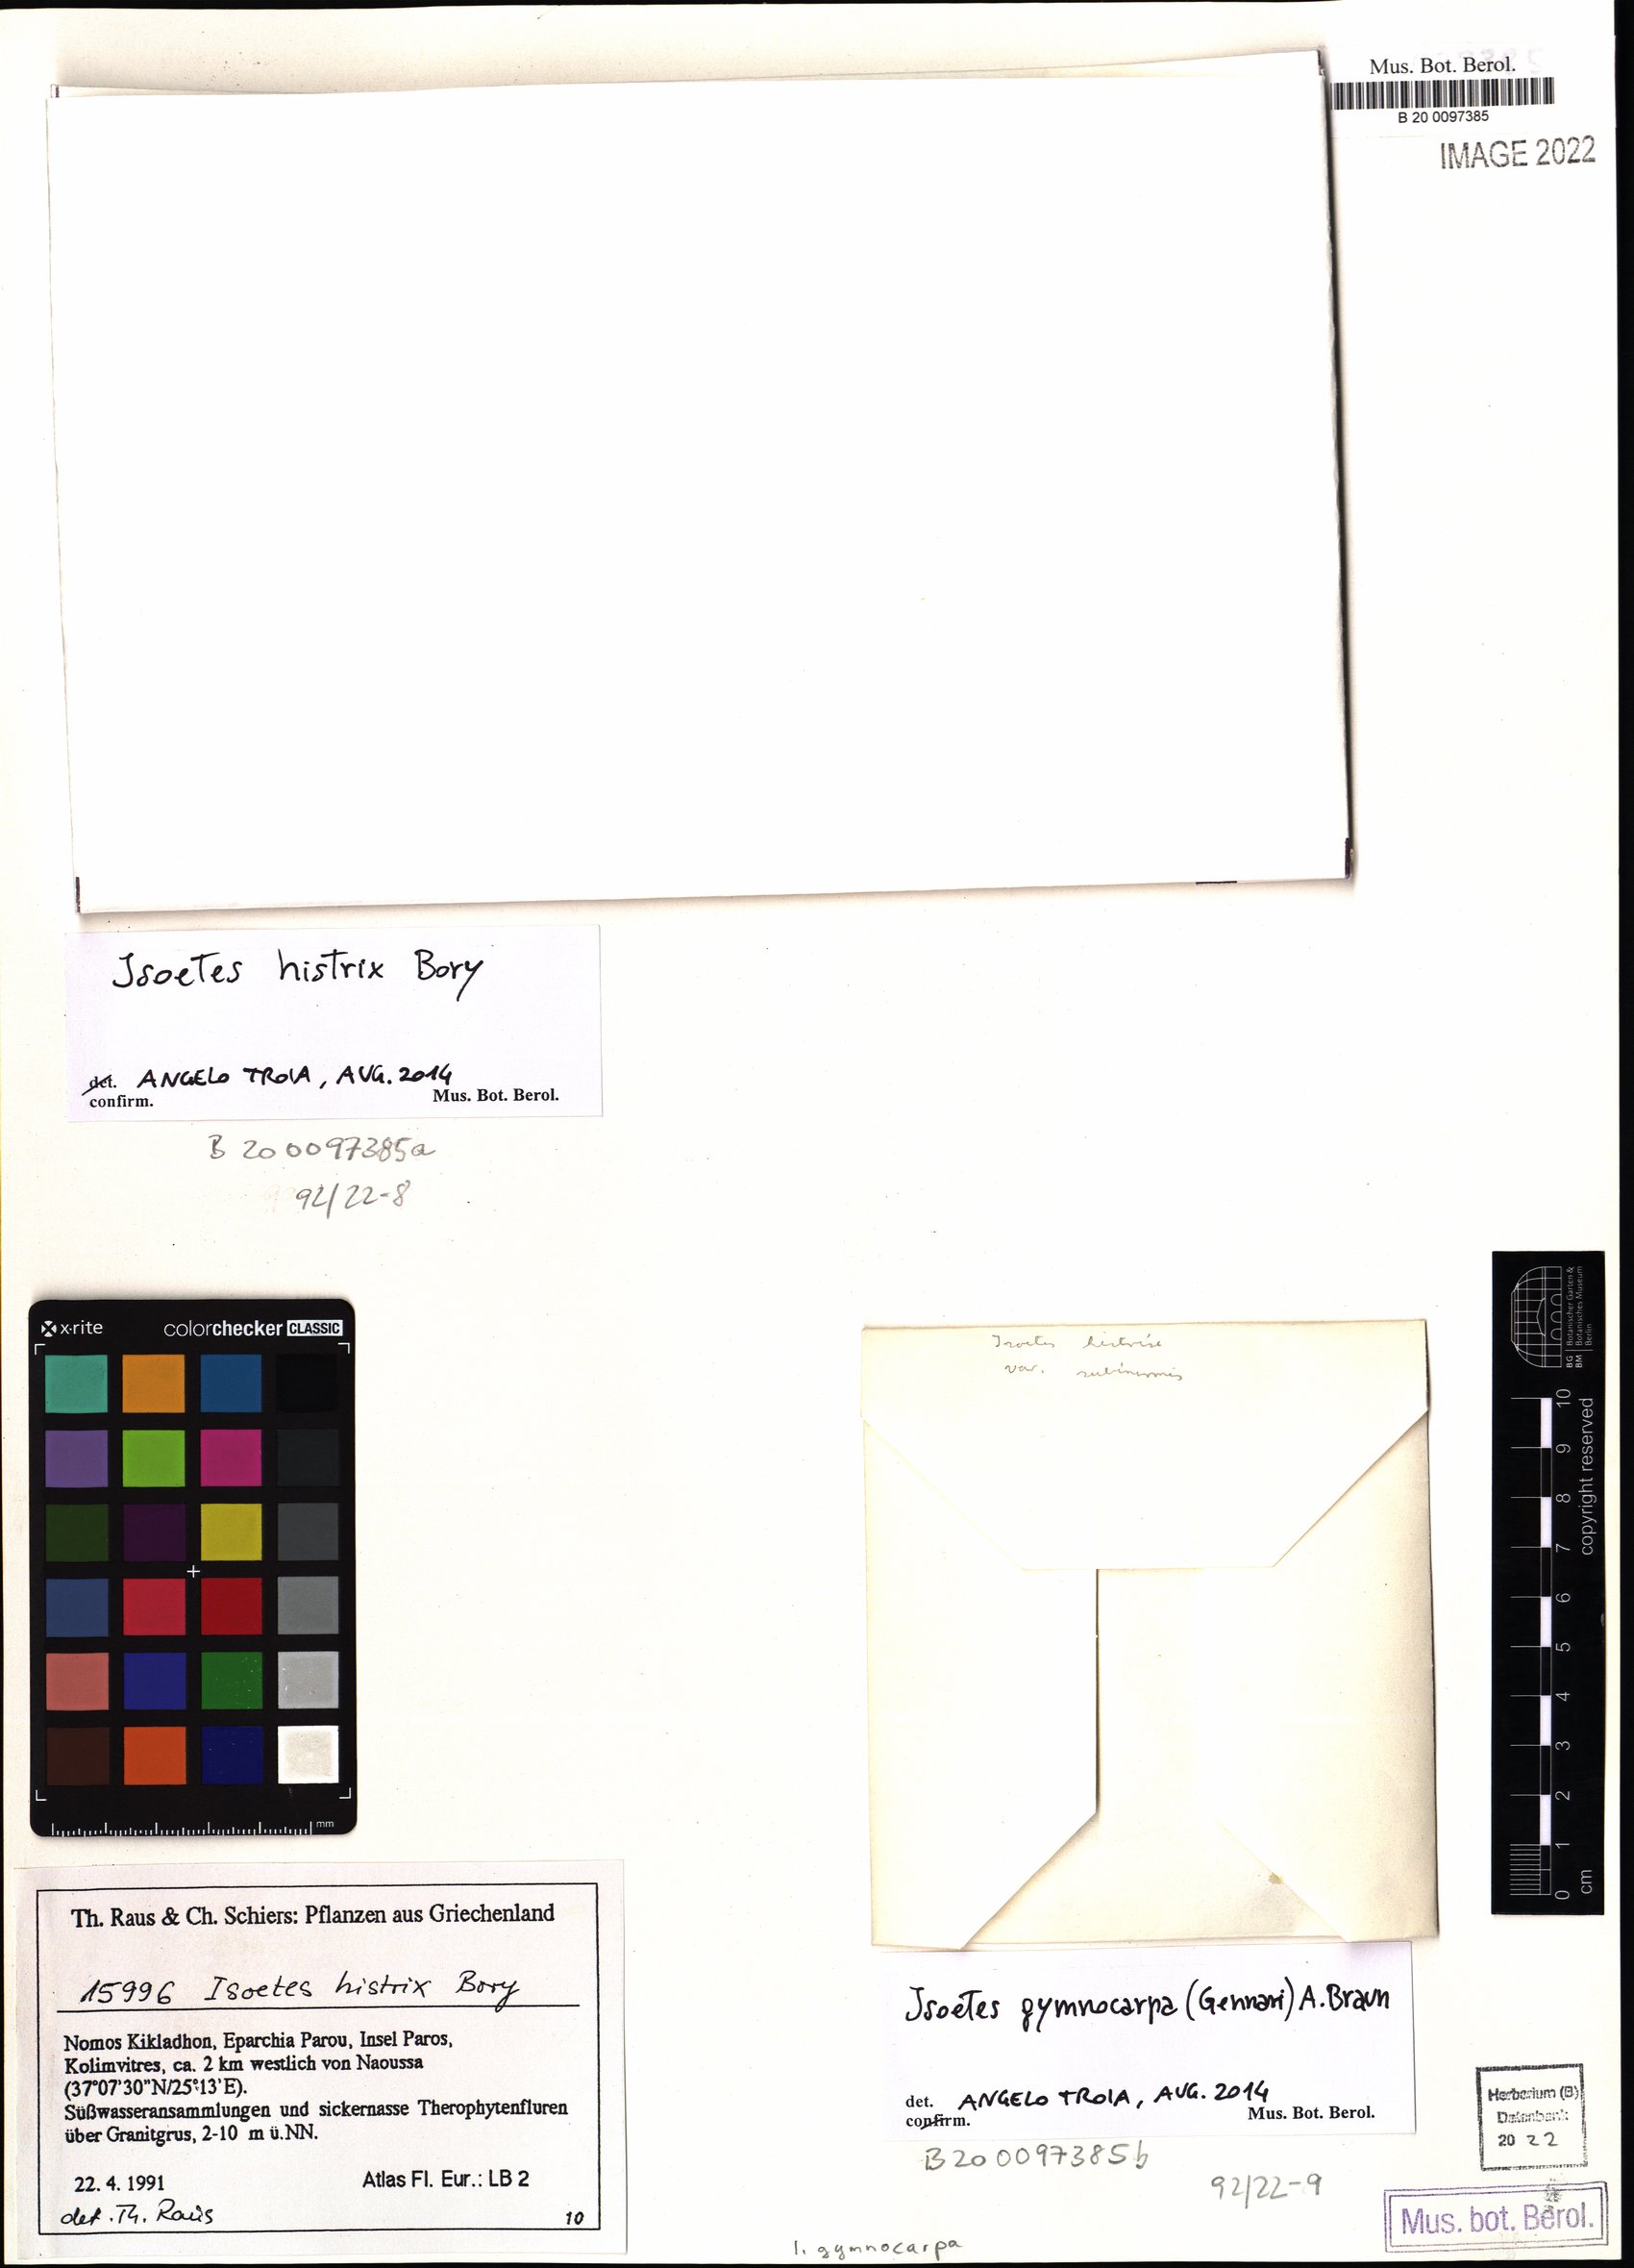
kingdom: Plantae
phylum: Tracheophyta
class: Lycopodiopsida
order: Isoetales
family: Isoetaceae
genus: Isoetes
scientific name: Isoetes histrix
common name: Land quillwort
